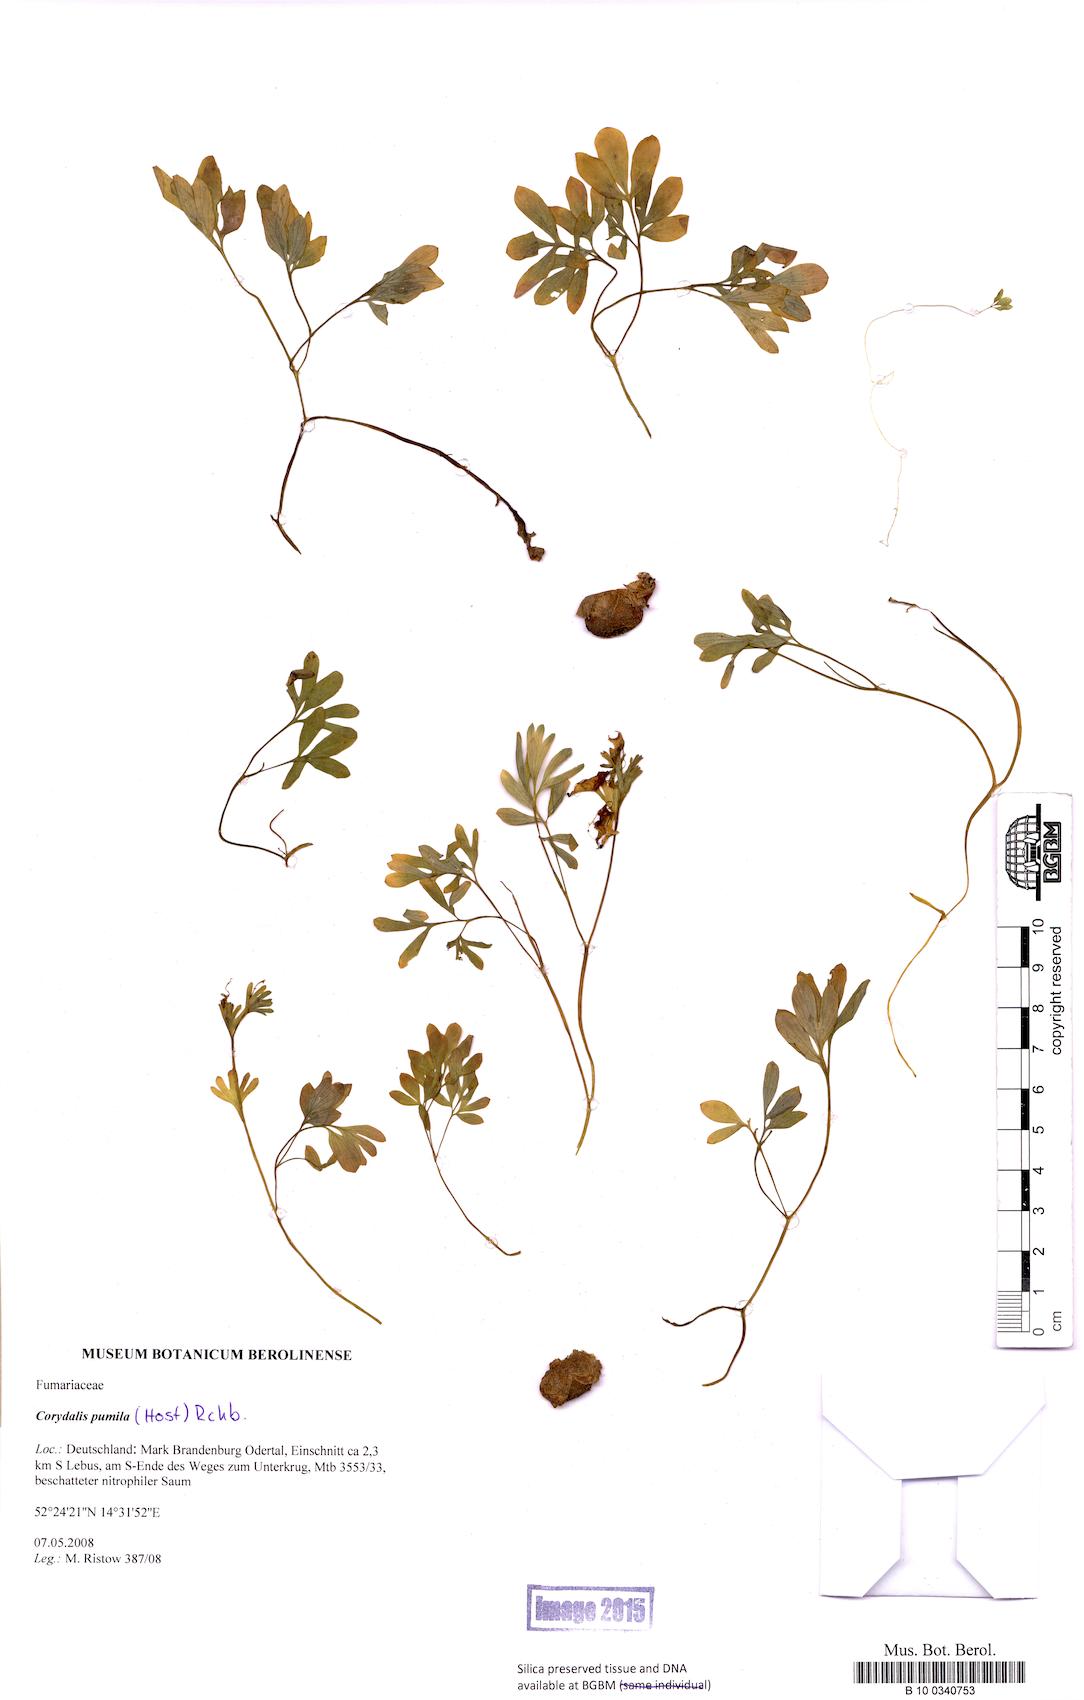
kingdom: Plantae
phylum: Tracheophyta
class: Magnoliopsida
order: Ranunculales
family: Papaveraceae
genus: Corydalis
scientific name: Corydalis pumila
